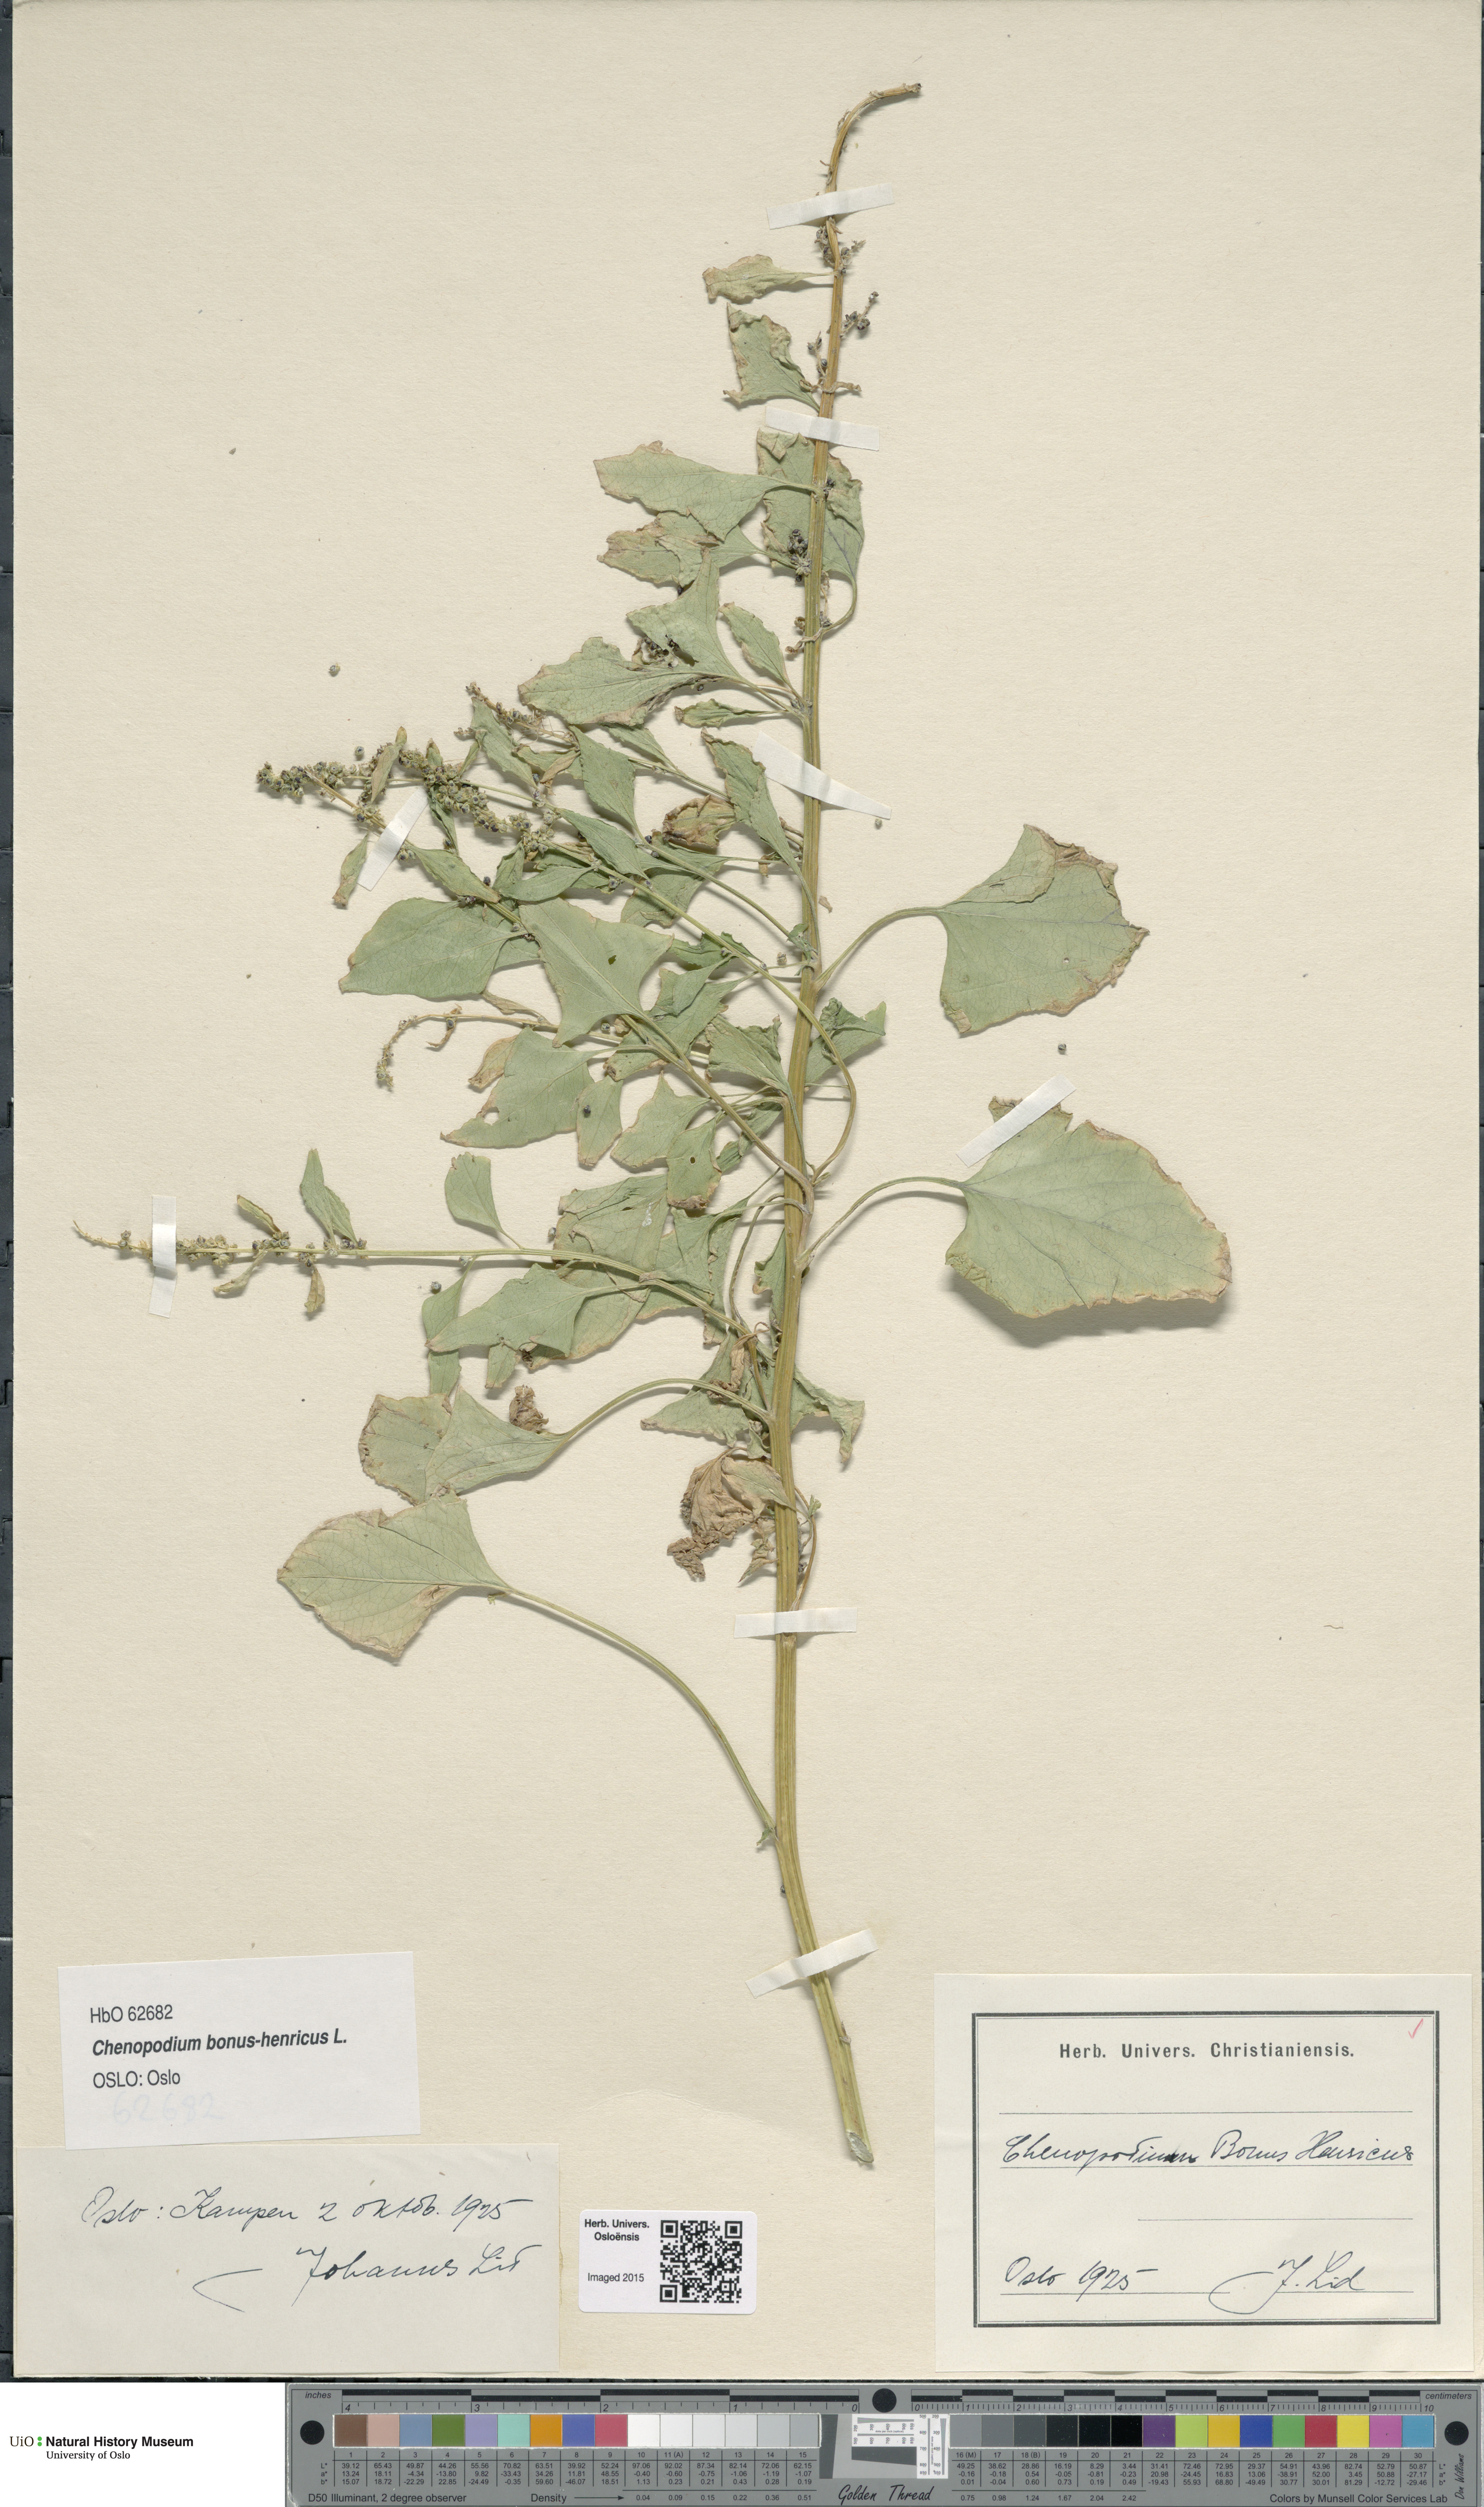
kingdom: Plantae
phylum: Tracheophyta
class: Magnoliopsida
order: Caryophyllales
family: Amaranthaceae
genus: Blitum
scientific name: Blitum bonus-henricus
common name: Good king henry
